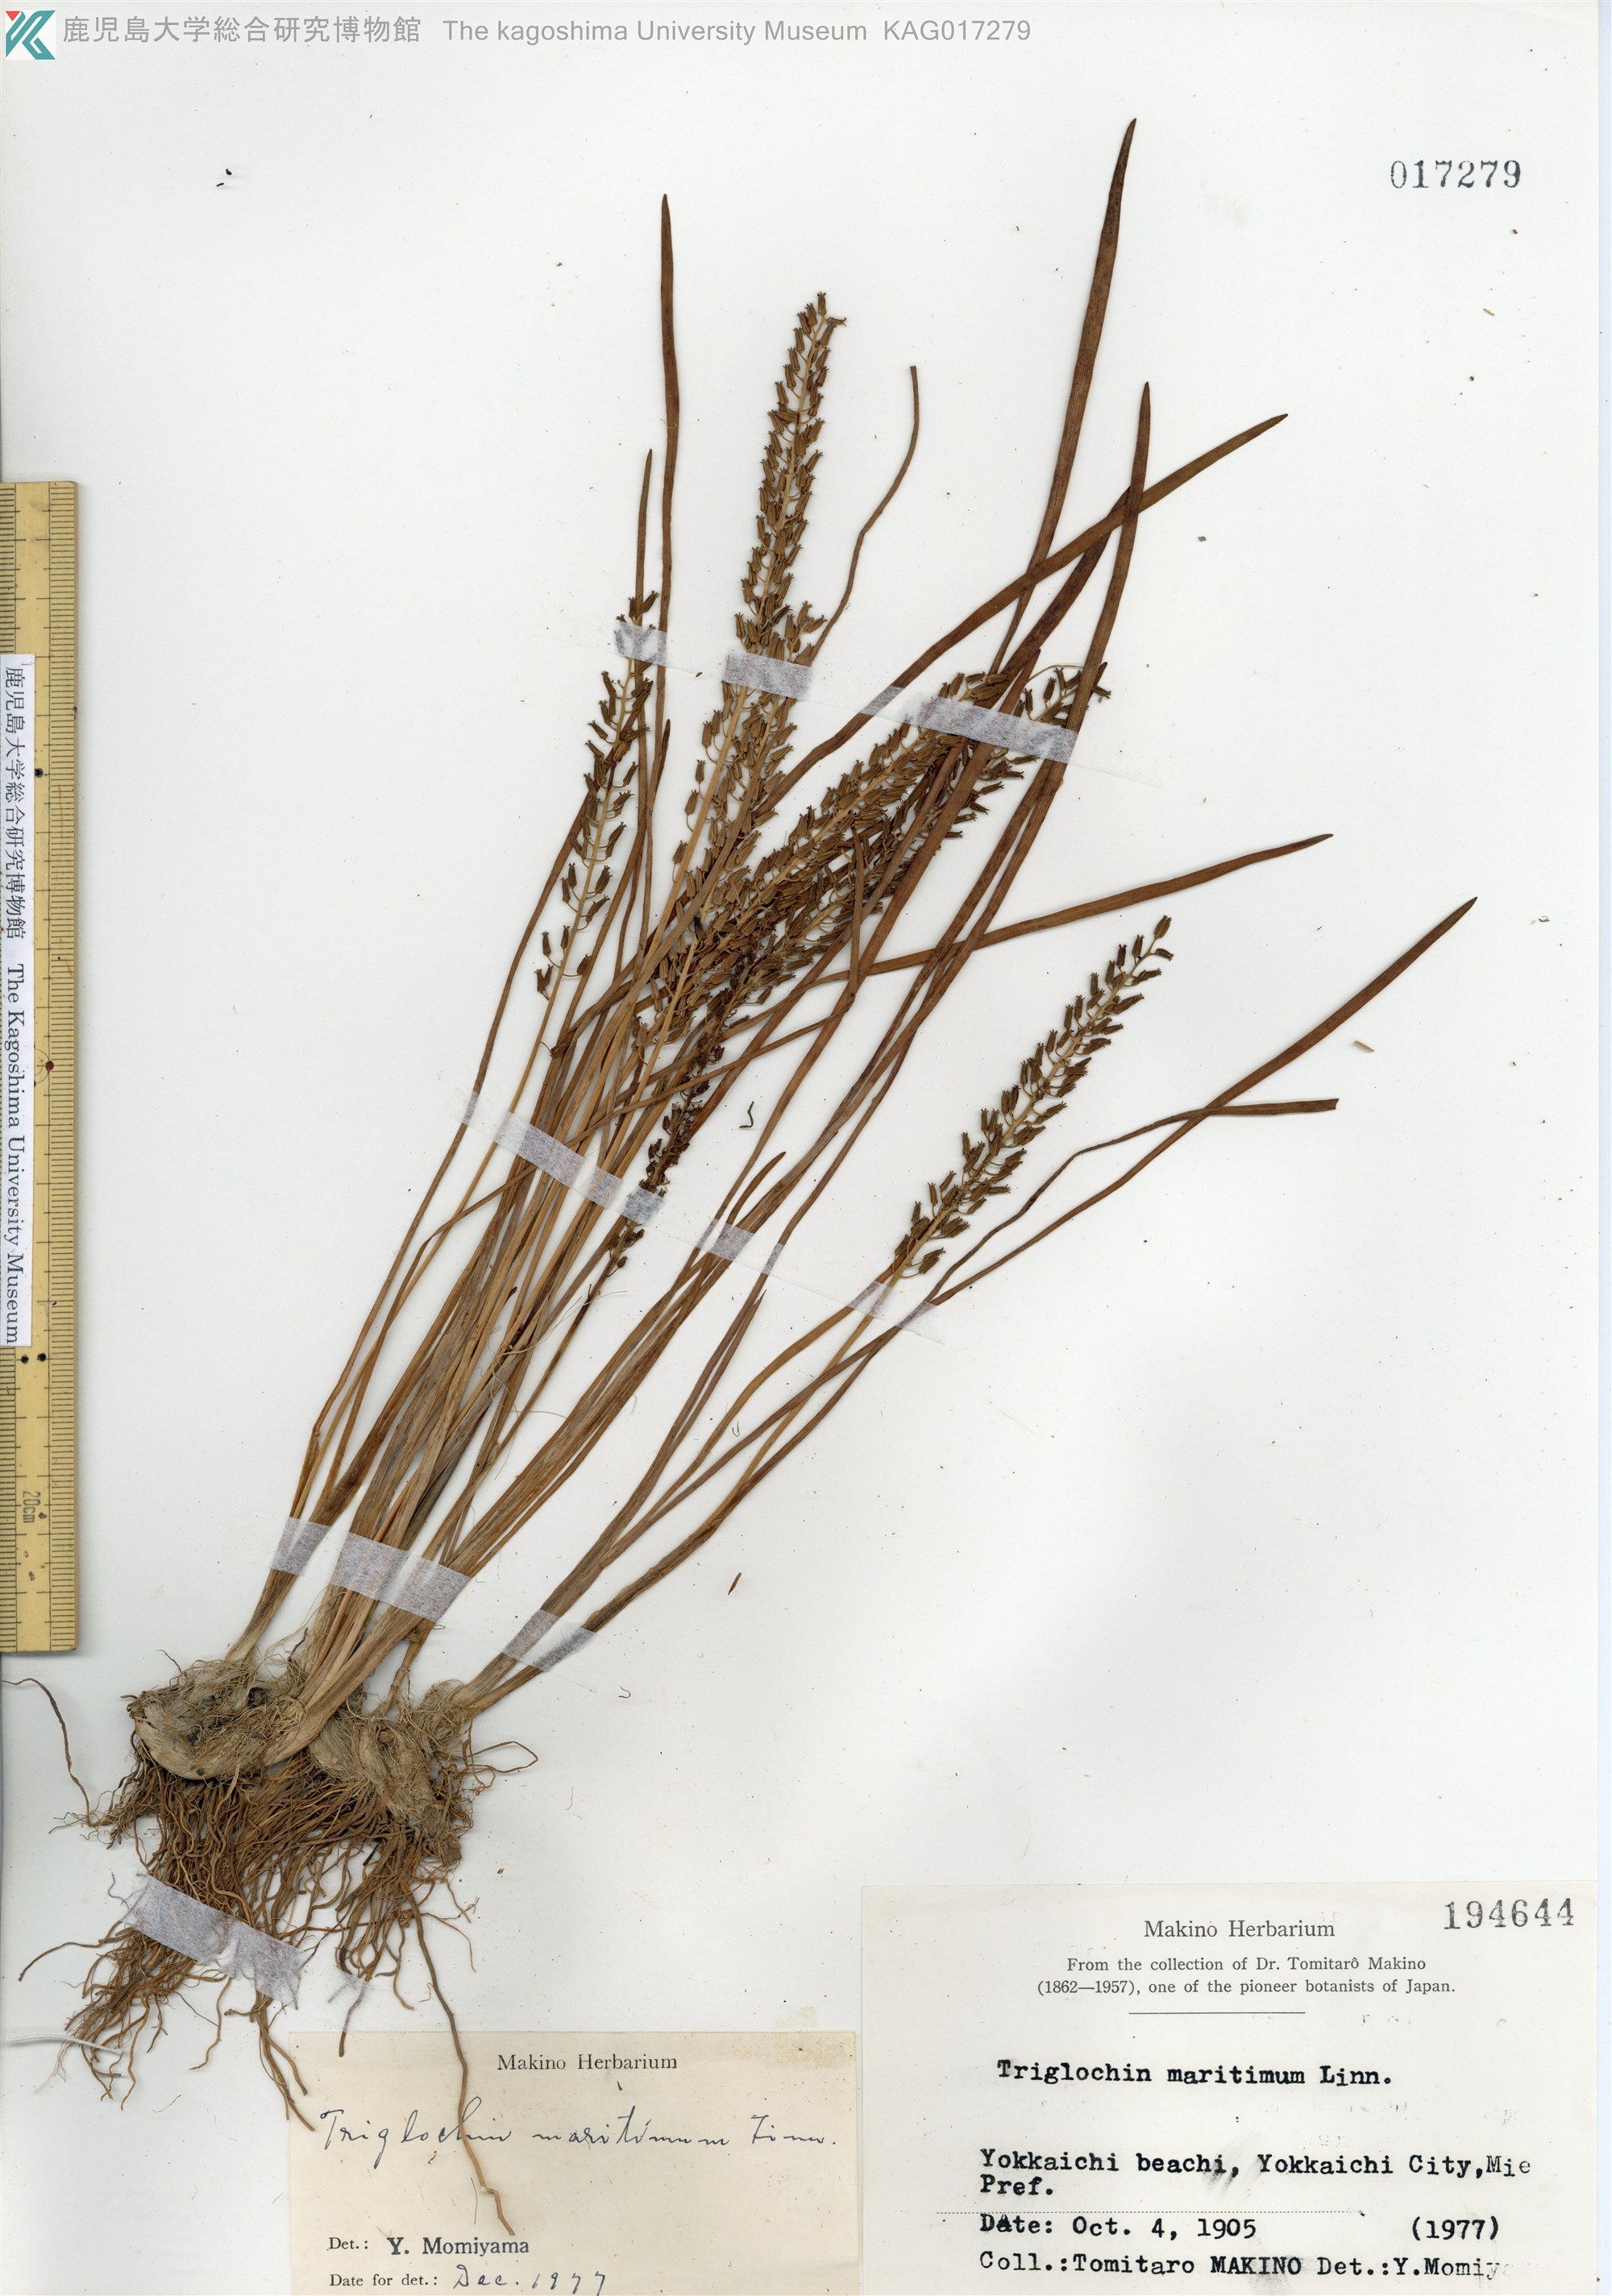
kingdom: Plantae
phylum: Tracheophyta
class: Liliopsida
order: Alismatales
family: Juncaginaceae
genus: Triglochin
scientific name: Triglochin maritima
